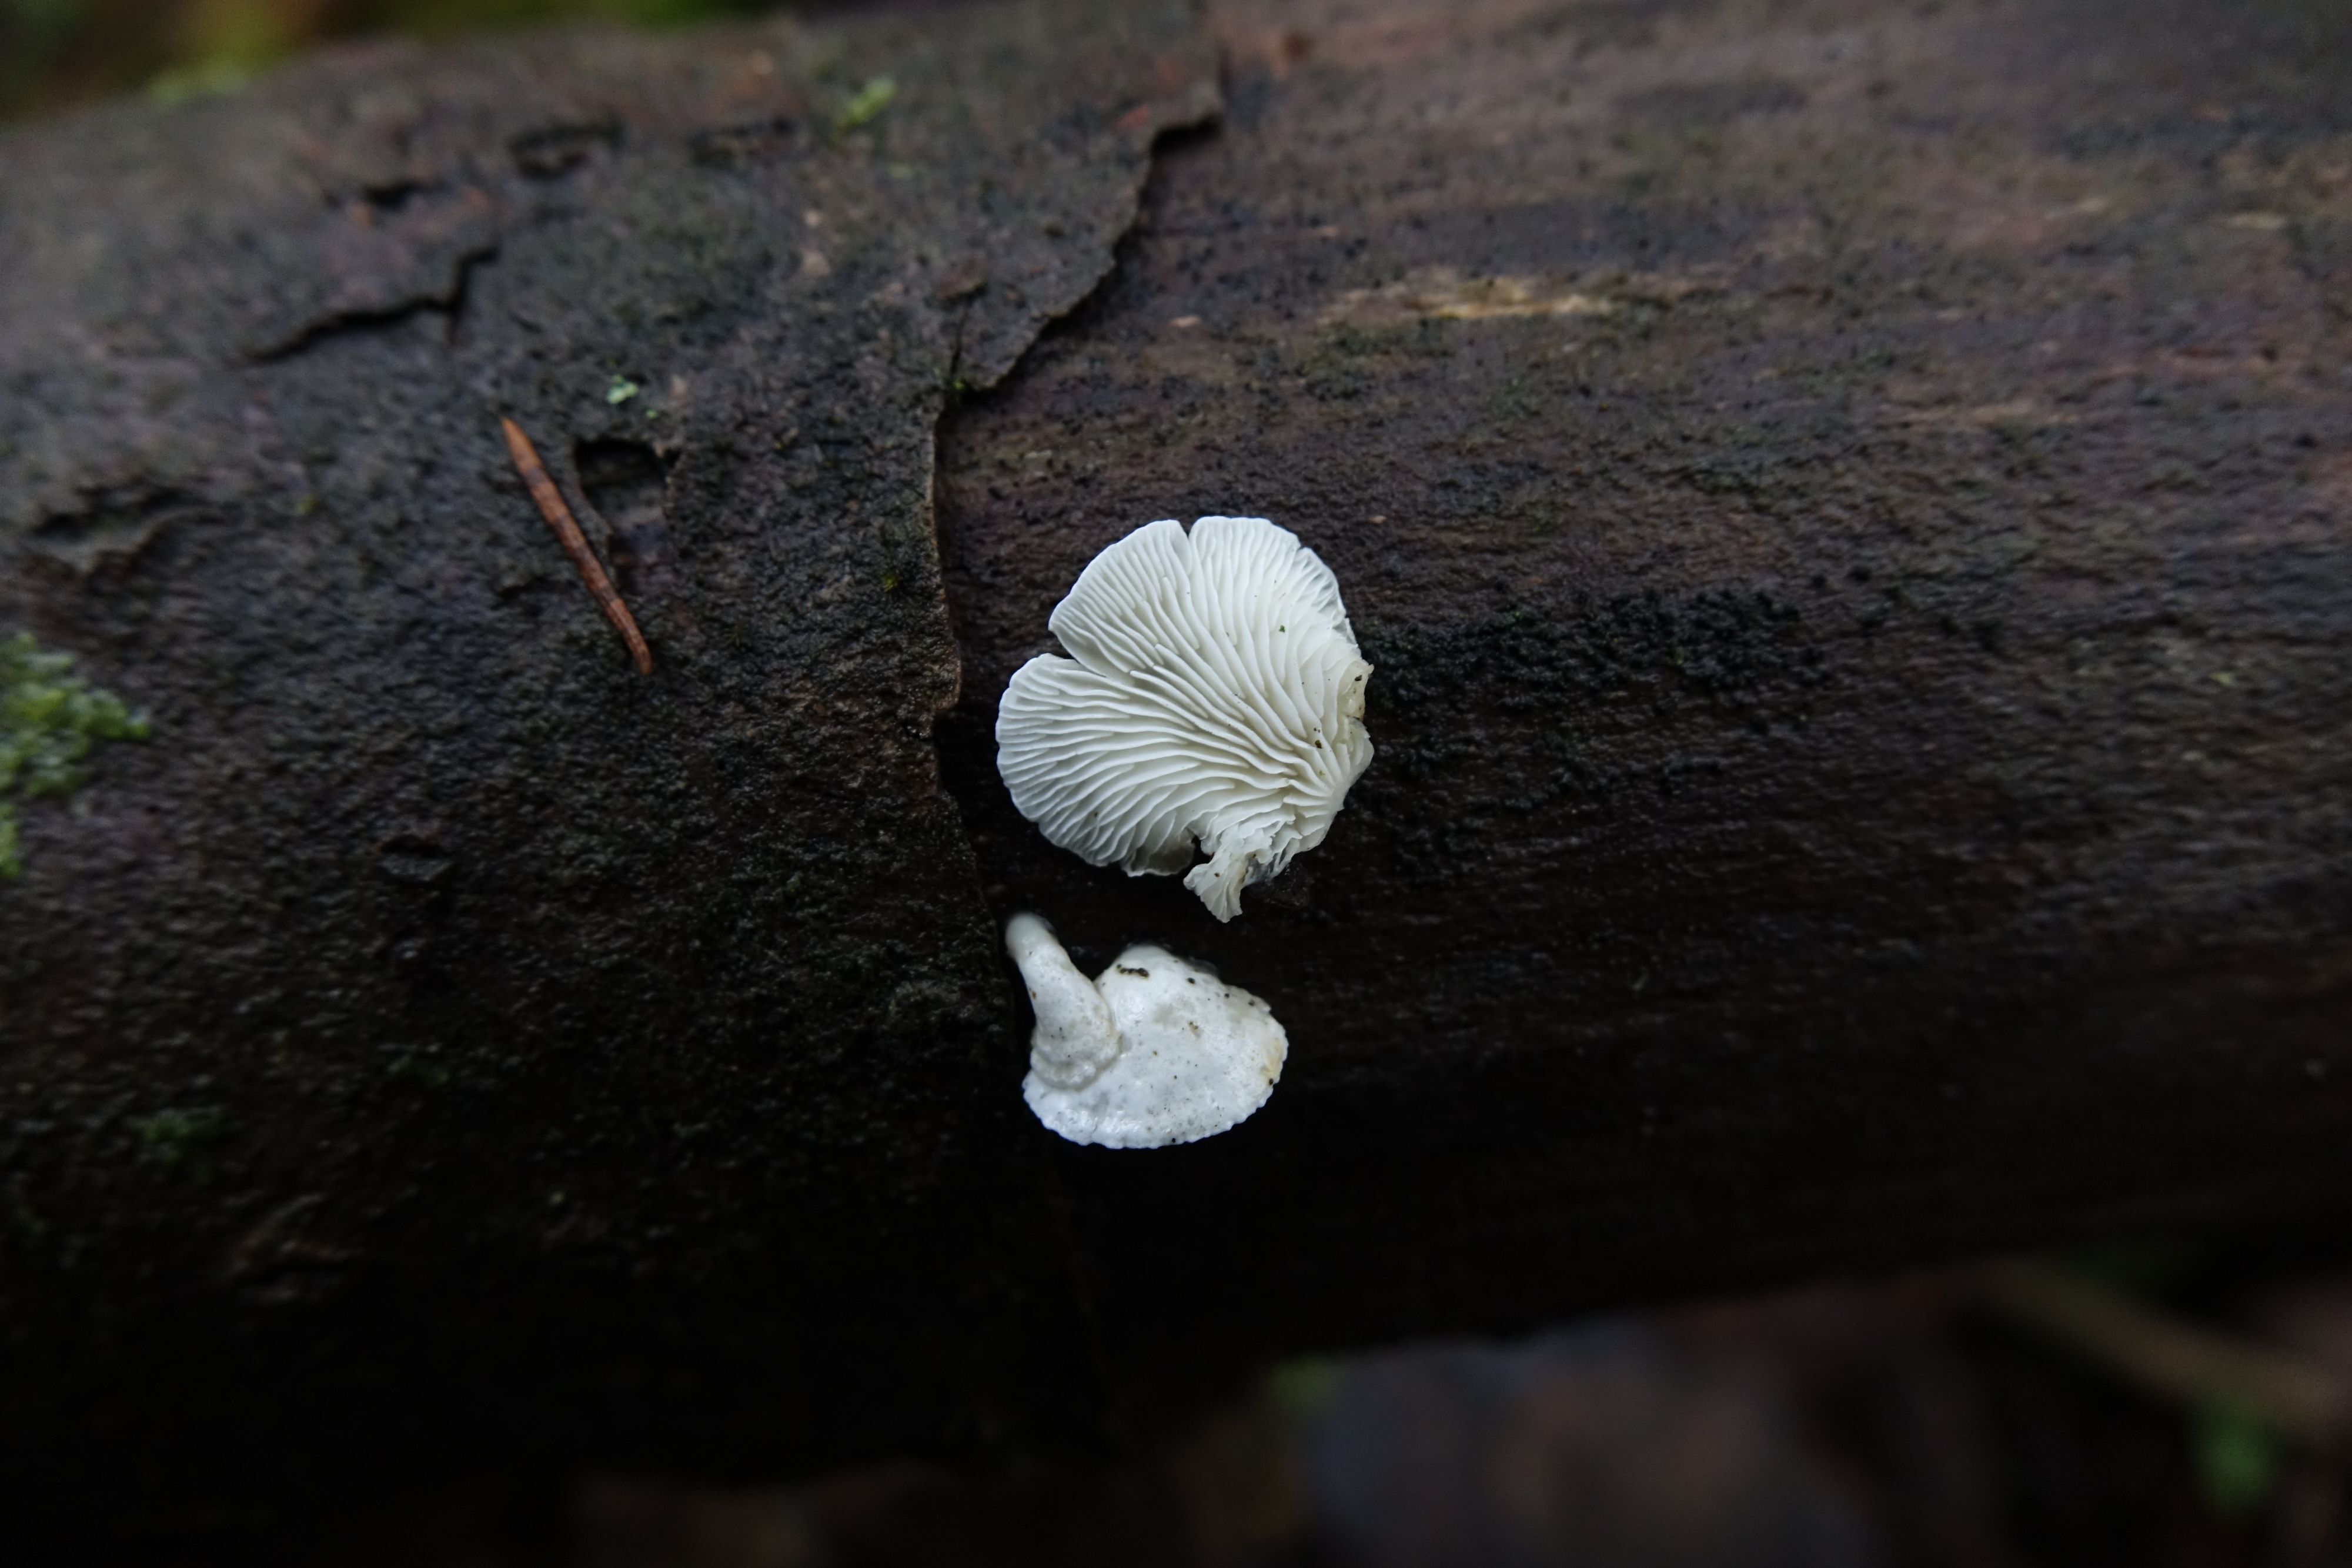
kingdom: Fungi
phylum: Basidiomycota
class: Agaricomycetes
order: Agaricales
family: Cyphellaceae
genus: Cheimonophyllum
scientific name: Cheimonophyllum candidissimum
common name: Snowy oysterling
